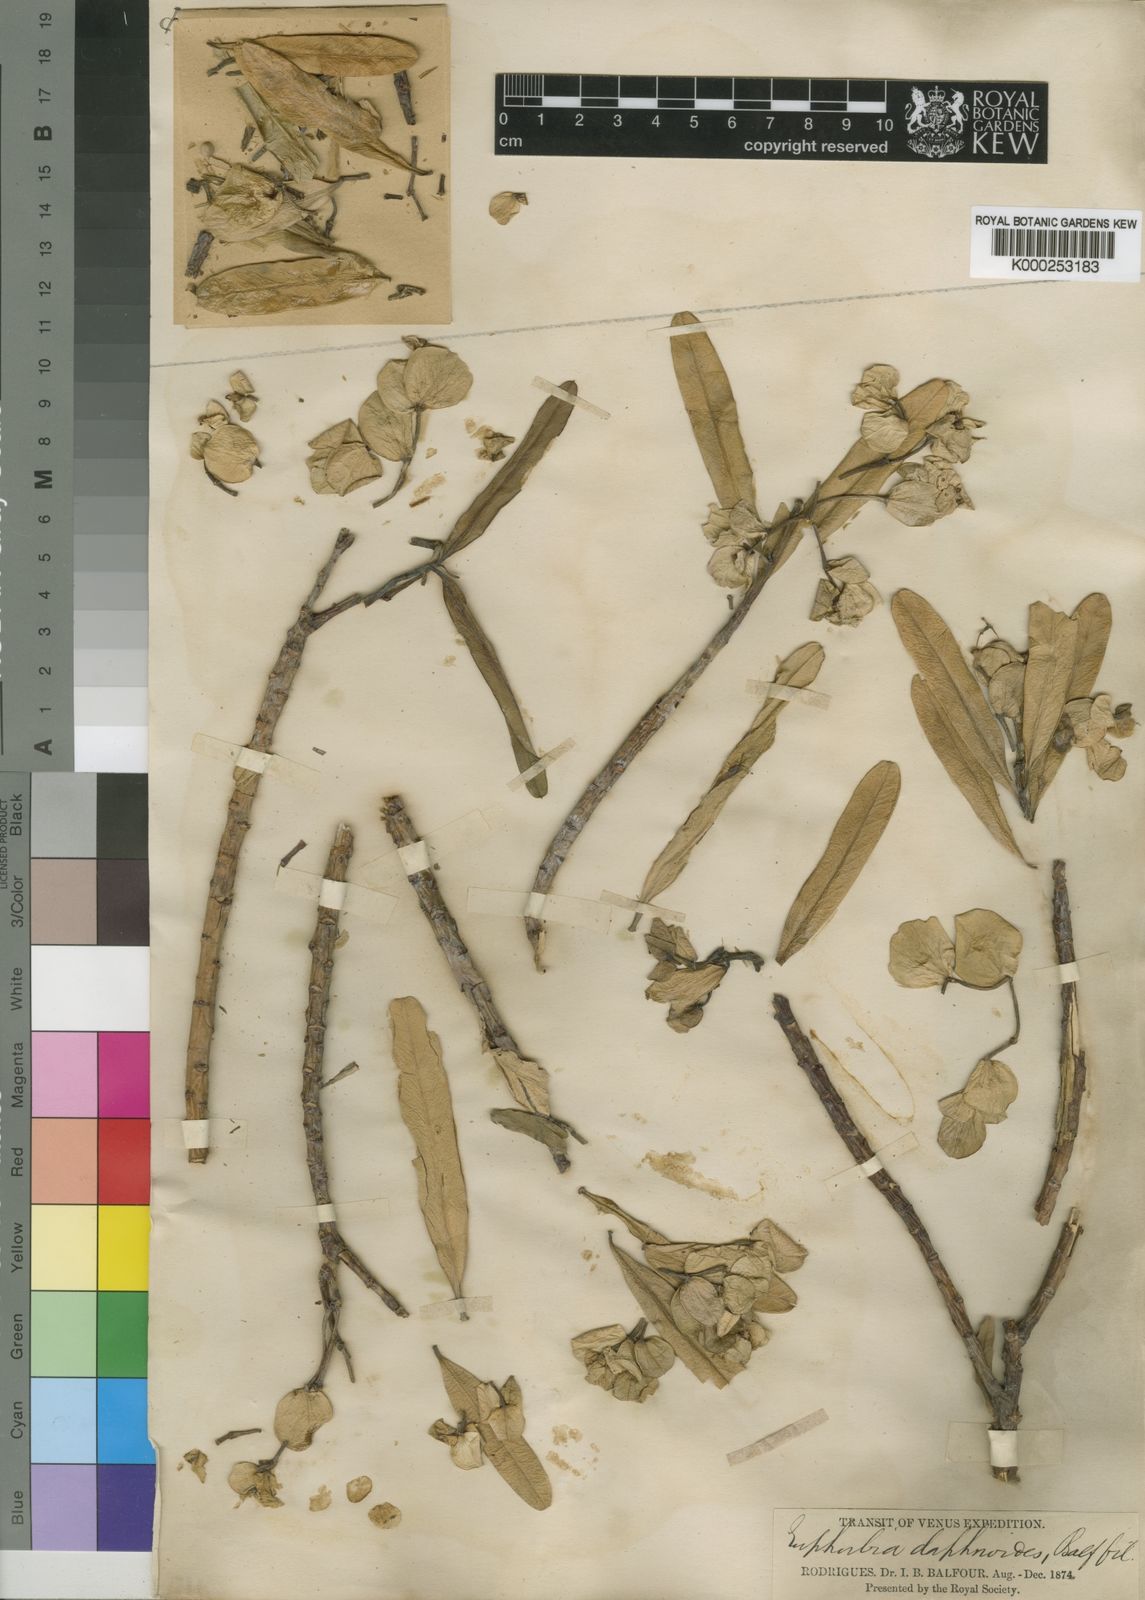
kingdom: Plantae
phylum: Tracheophyta
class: Magnoliopsida
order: Malpighiales
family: Euphorbiaceae
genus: Euphorbia
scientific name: Euphorbia pyrifolia
